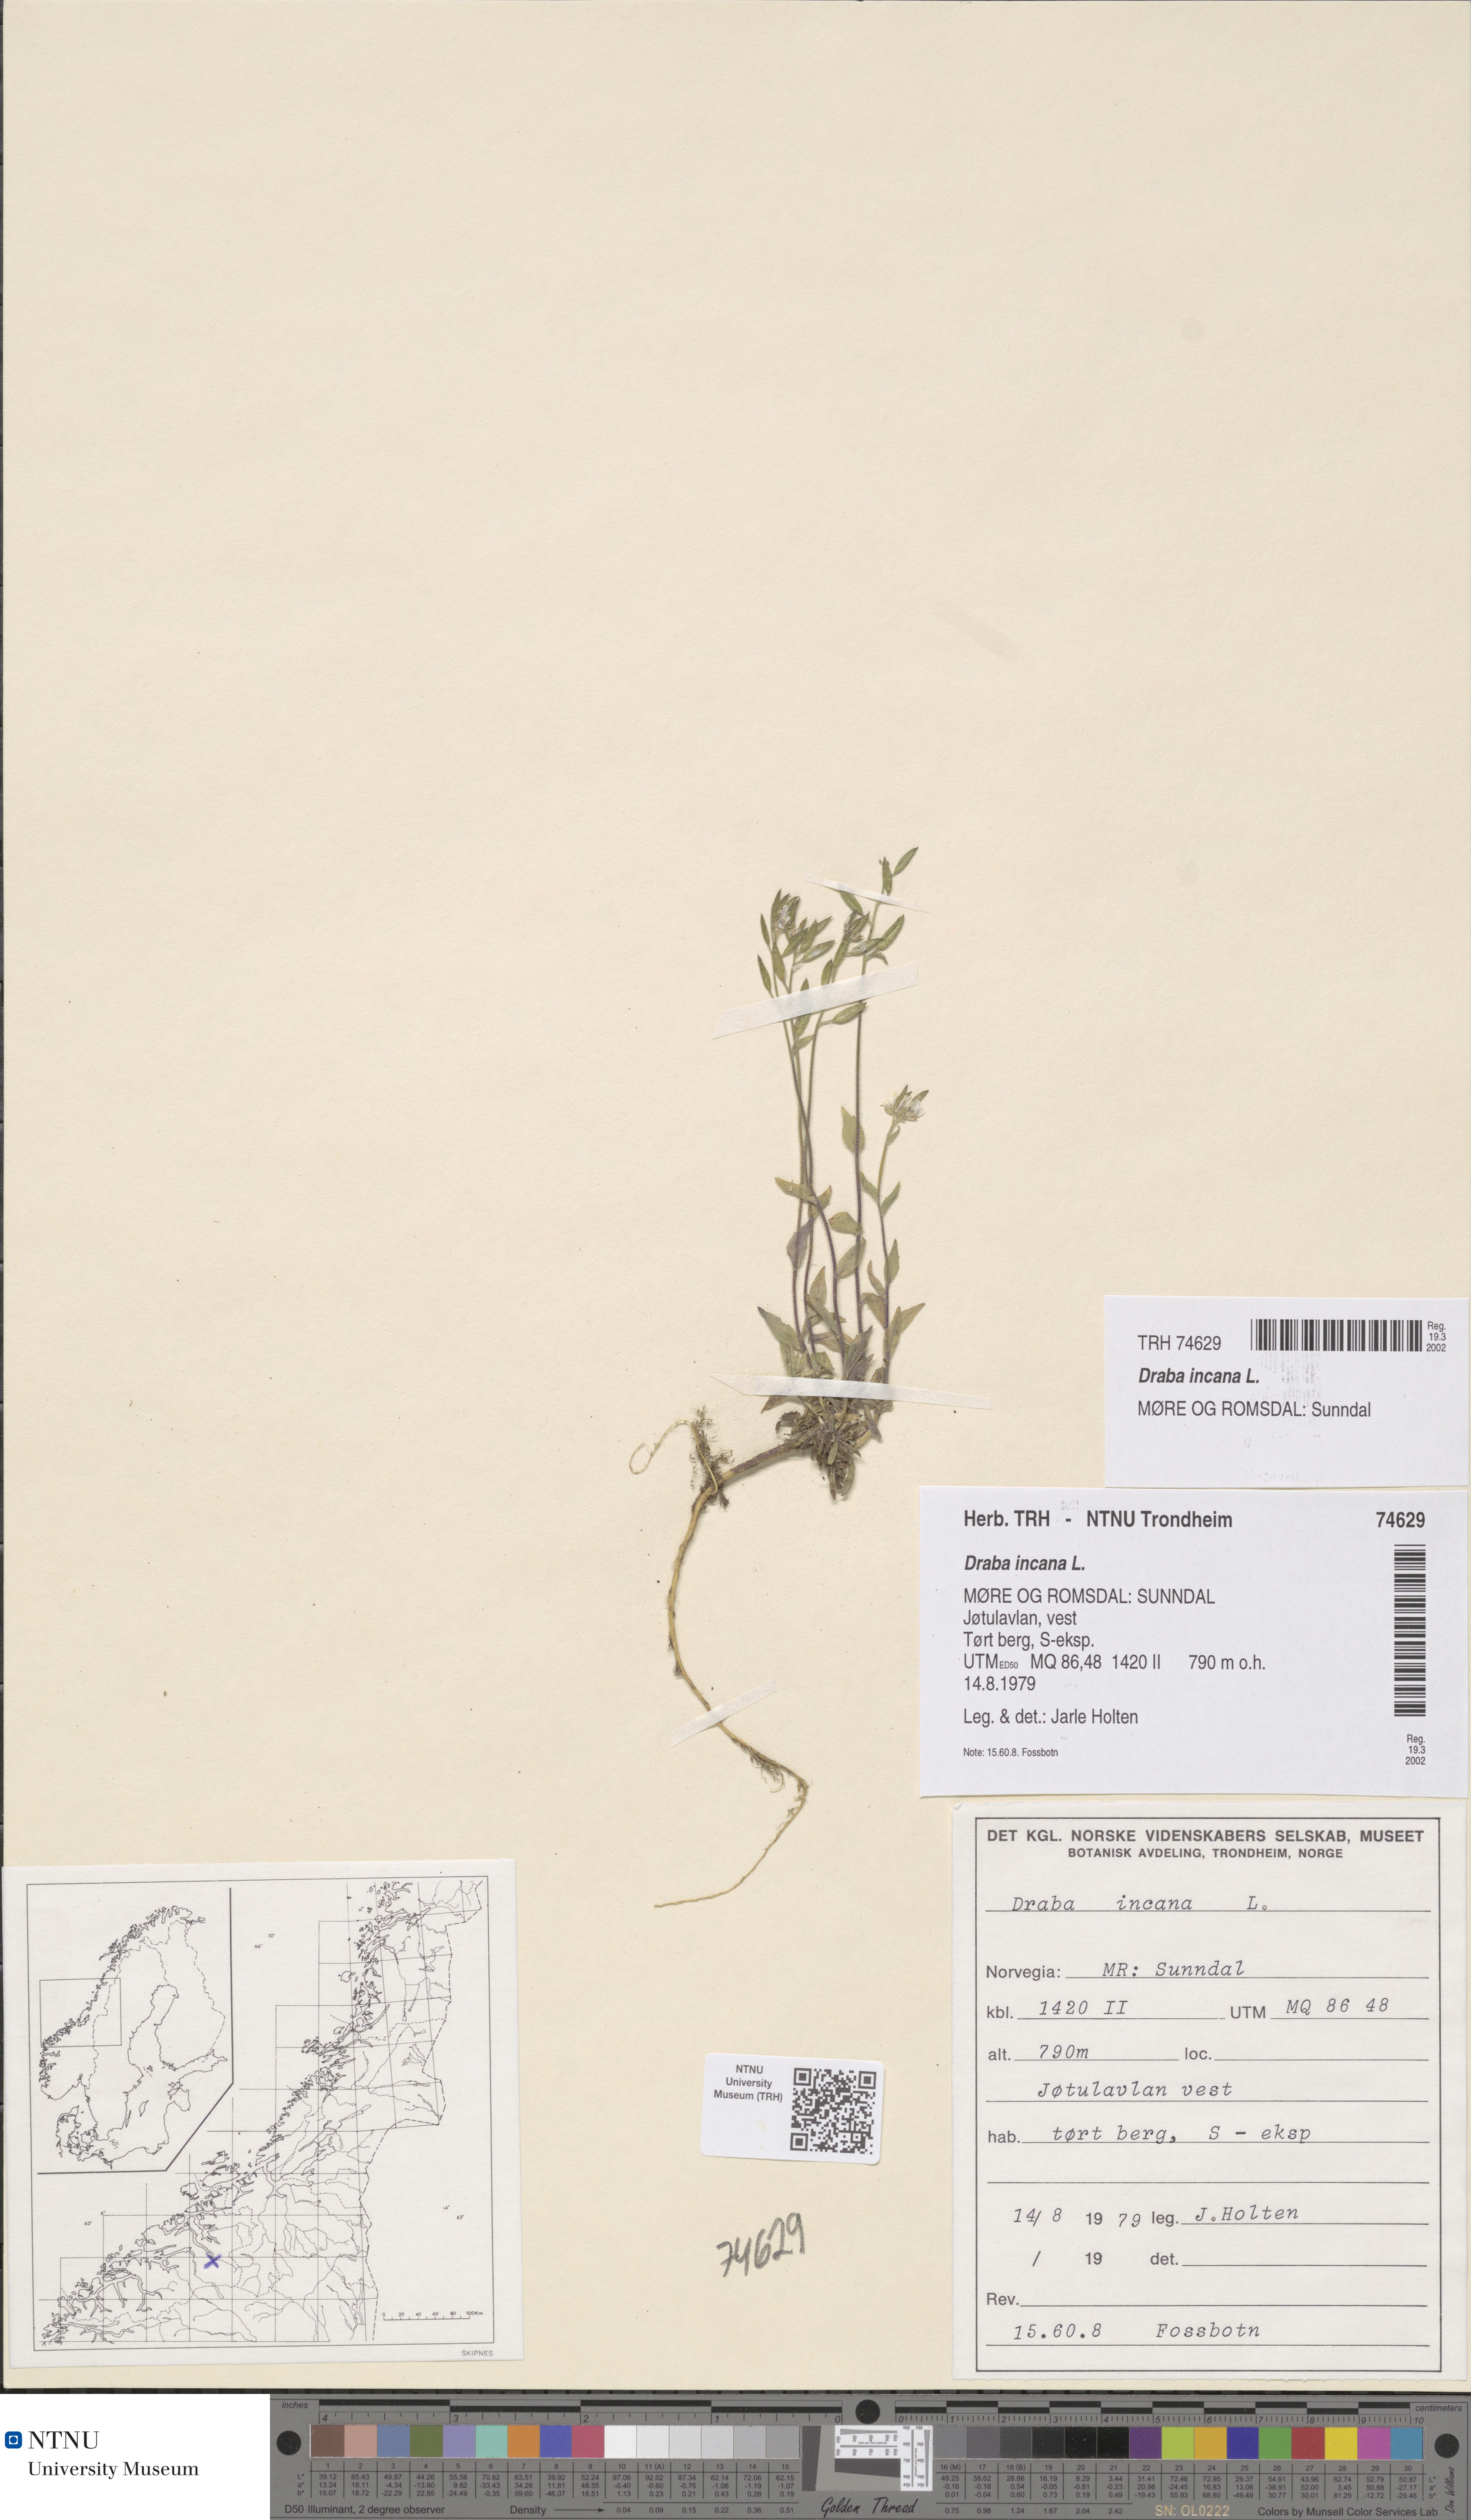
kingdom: Plantae
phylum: Tracheophyta
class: Magnoliopsida
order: Brassicales
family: Brassicaceae
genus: Draba
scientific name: Draba incana
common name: Hoary whitlow-grass
